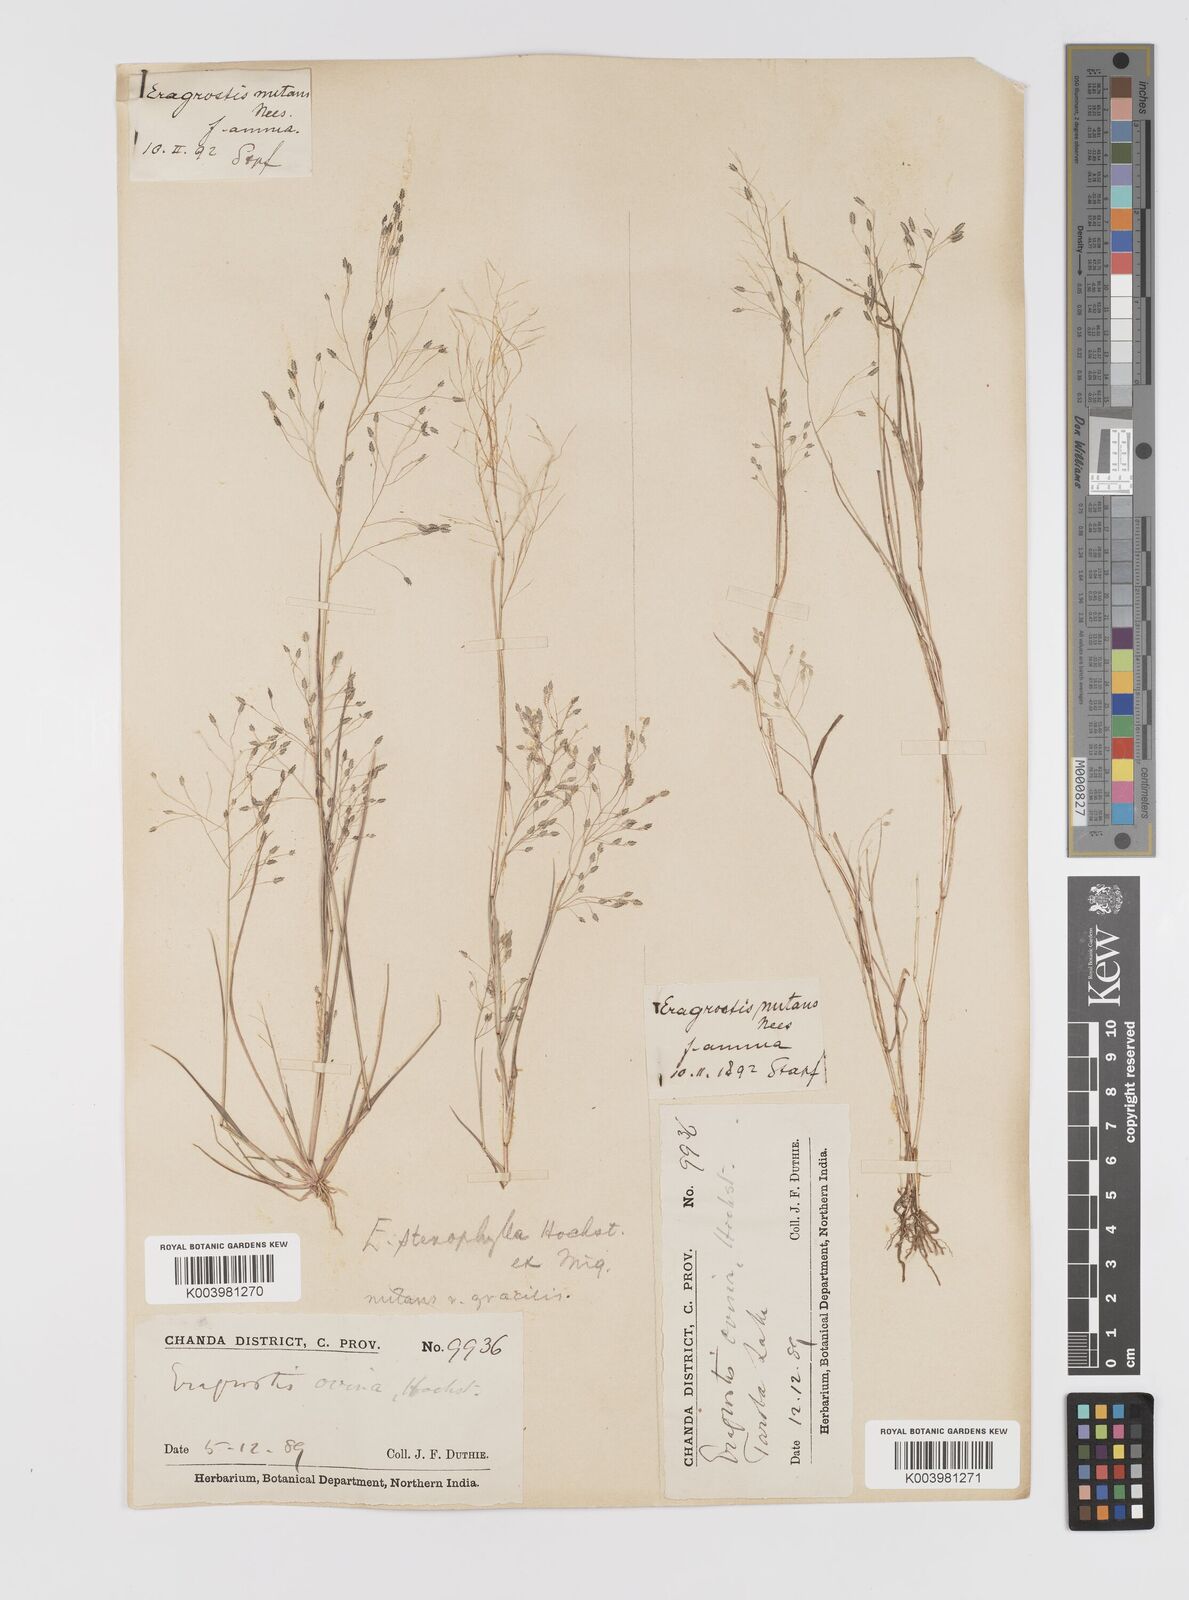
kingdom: Plantae
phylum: Tracheophyta
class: Liliopsida
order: Poales
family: Poaceae
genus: Eragrostis
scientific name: Eragrostis gangetica
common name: Slimflower lovegrass
